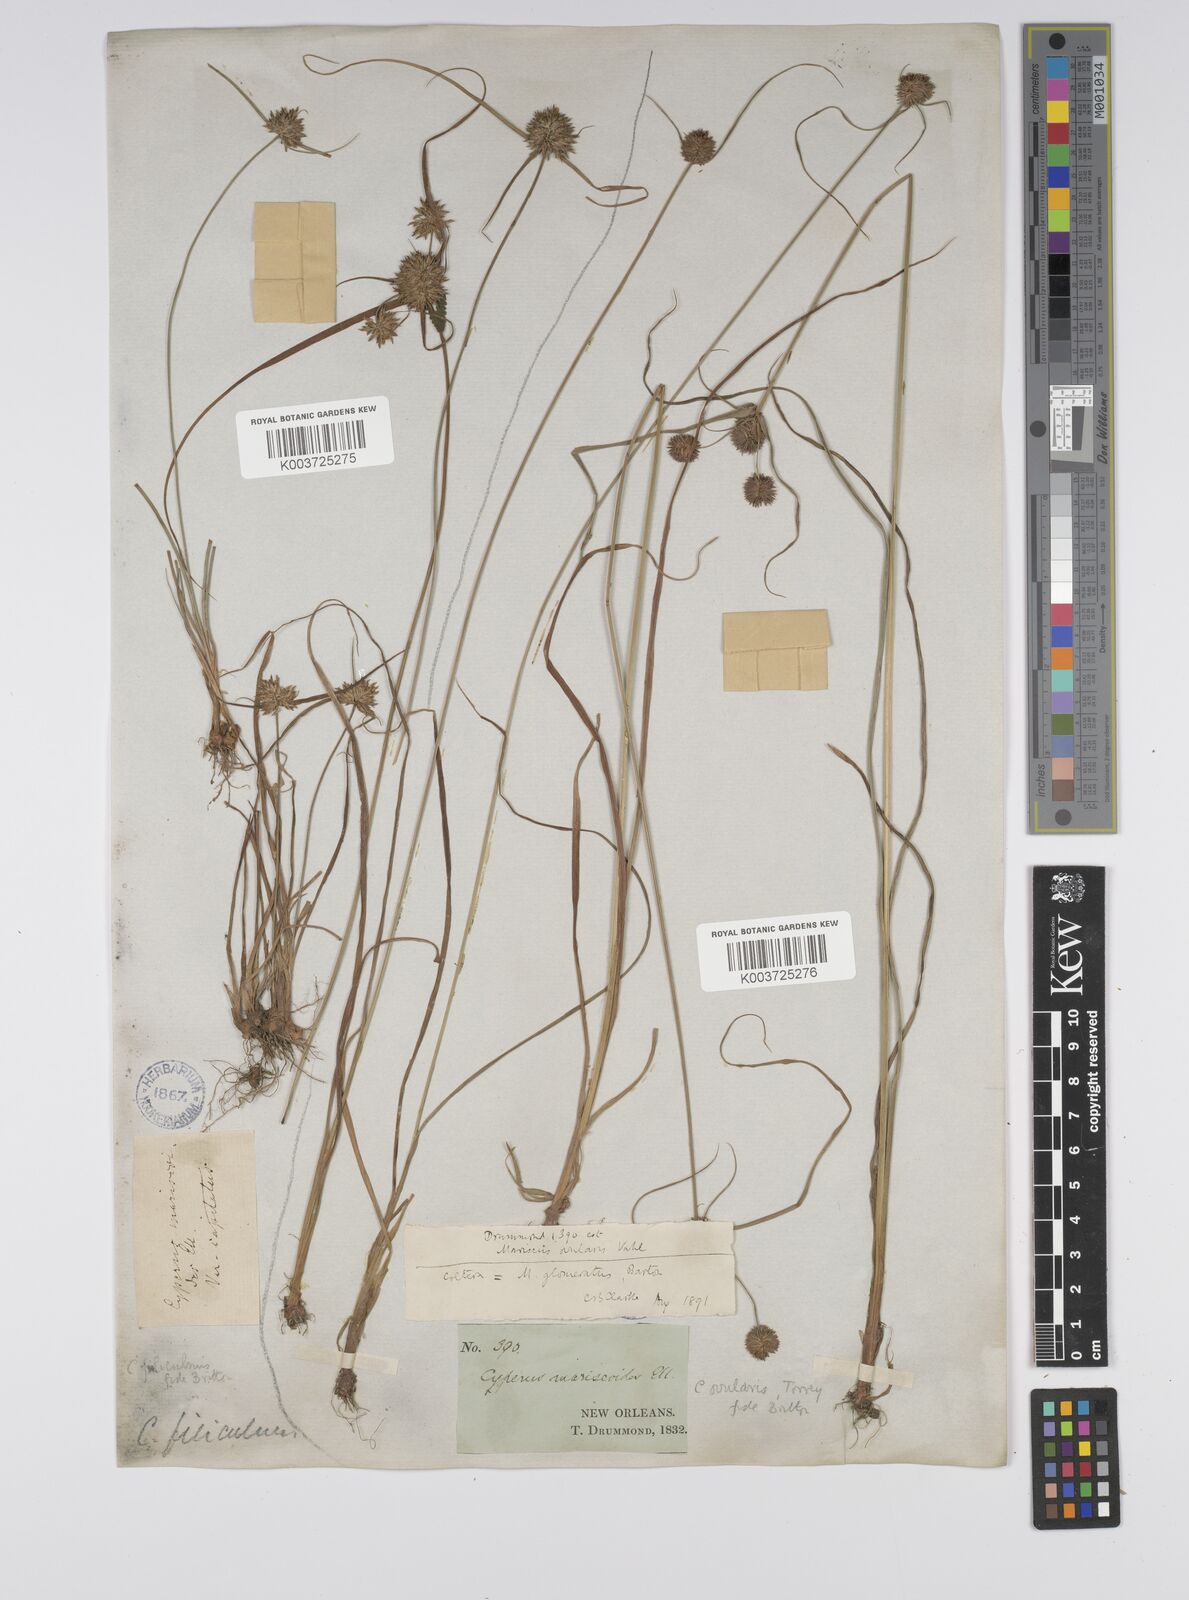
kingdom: Plantae
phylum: Tracheophyta
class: Liliopsida
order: Poales
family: Cyperaceae
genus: Cyperus
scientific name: Cyperus echinatus
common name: Teasel sedge
